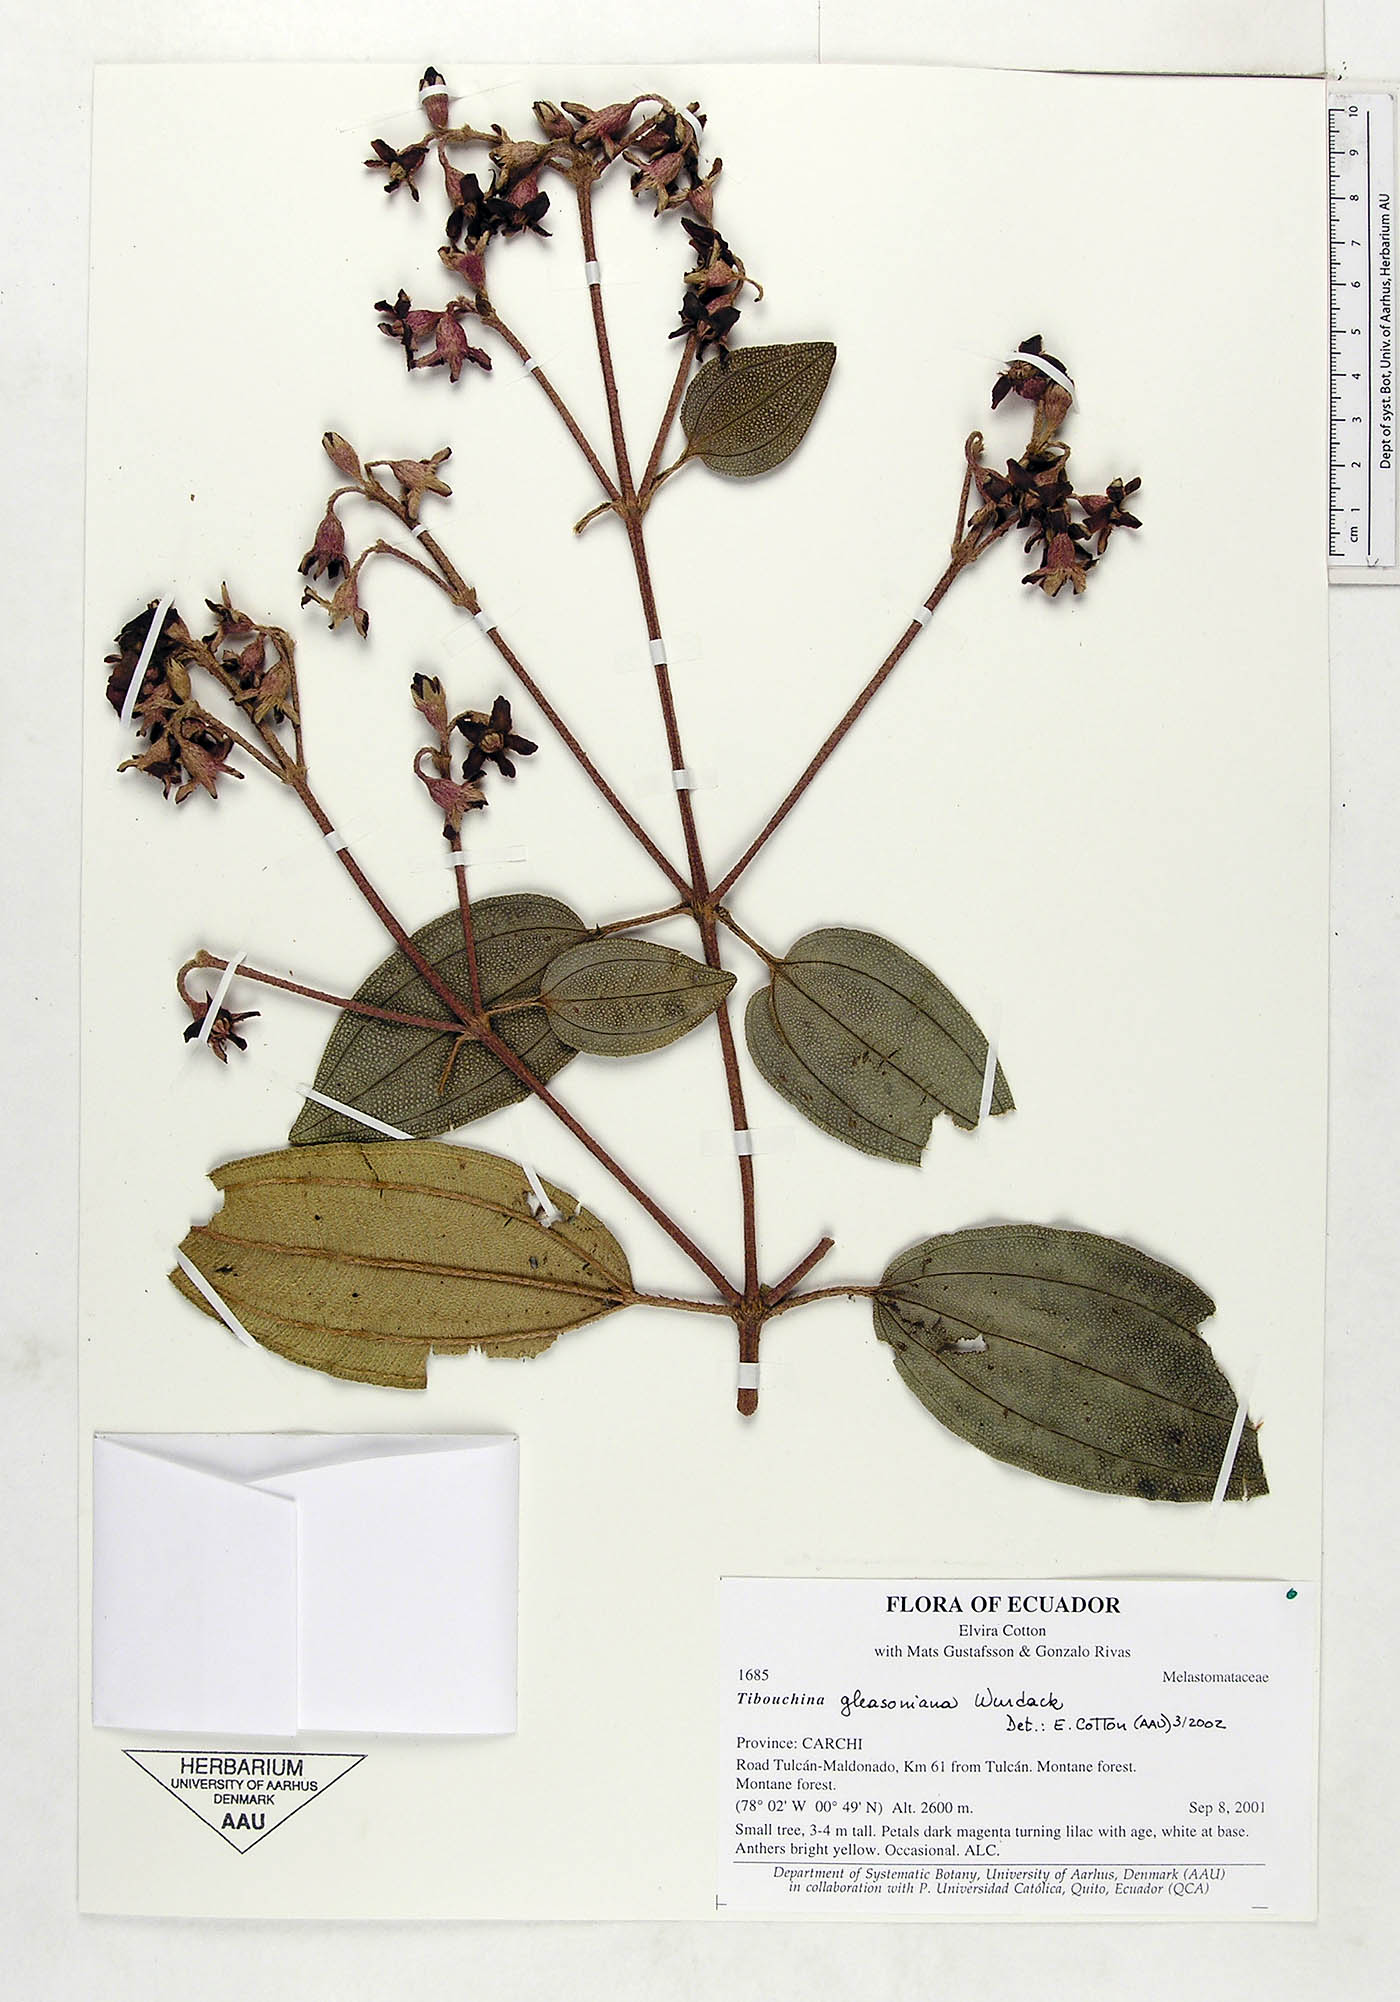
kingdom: Plantae
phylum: Tracheophyta
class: Magnoliopsida
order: Myrtales
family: Melastomataceae
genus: Andesanthus
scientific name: Andesanthus gleasonianus
